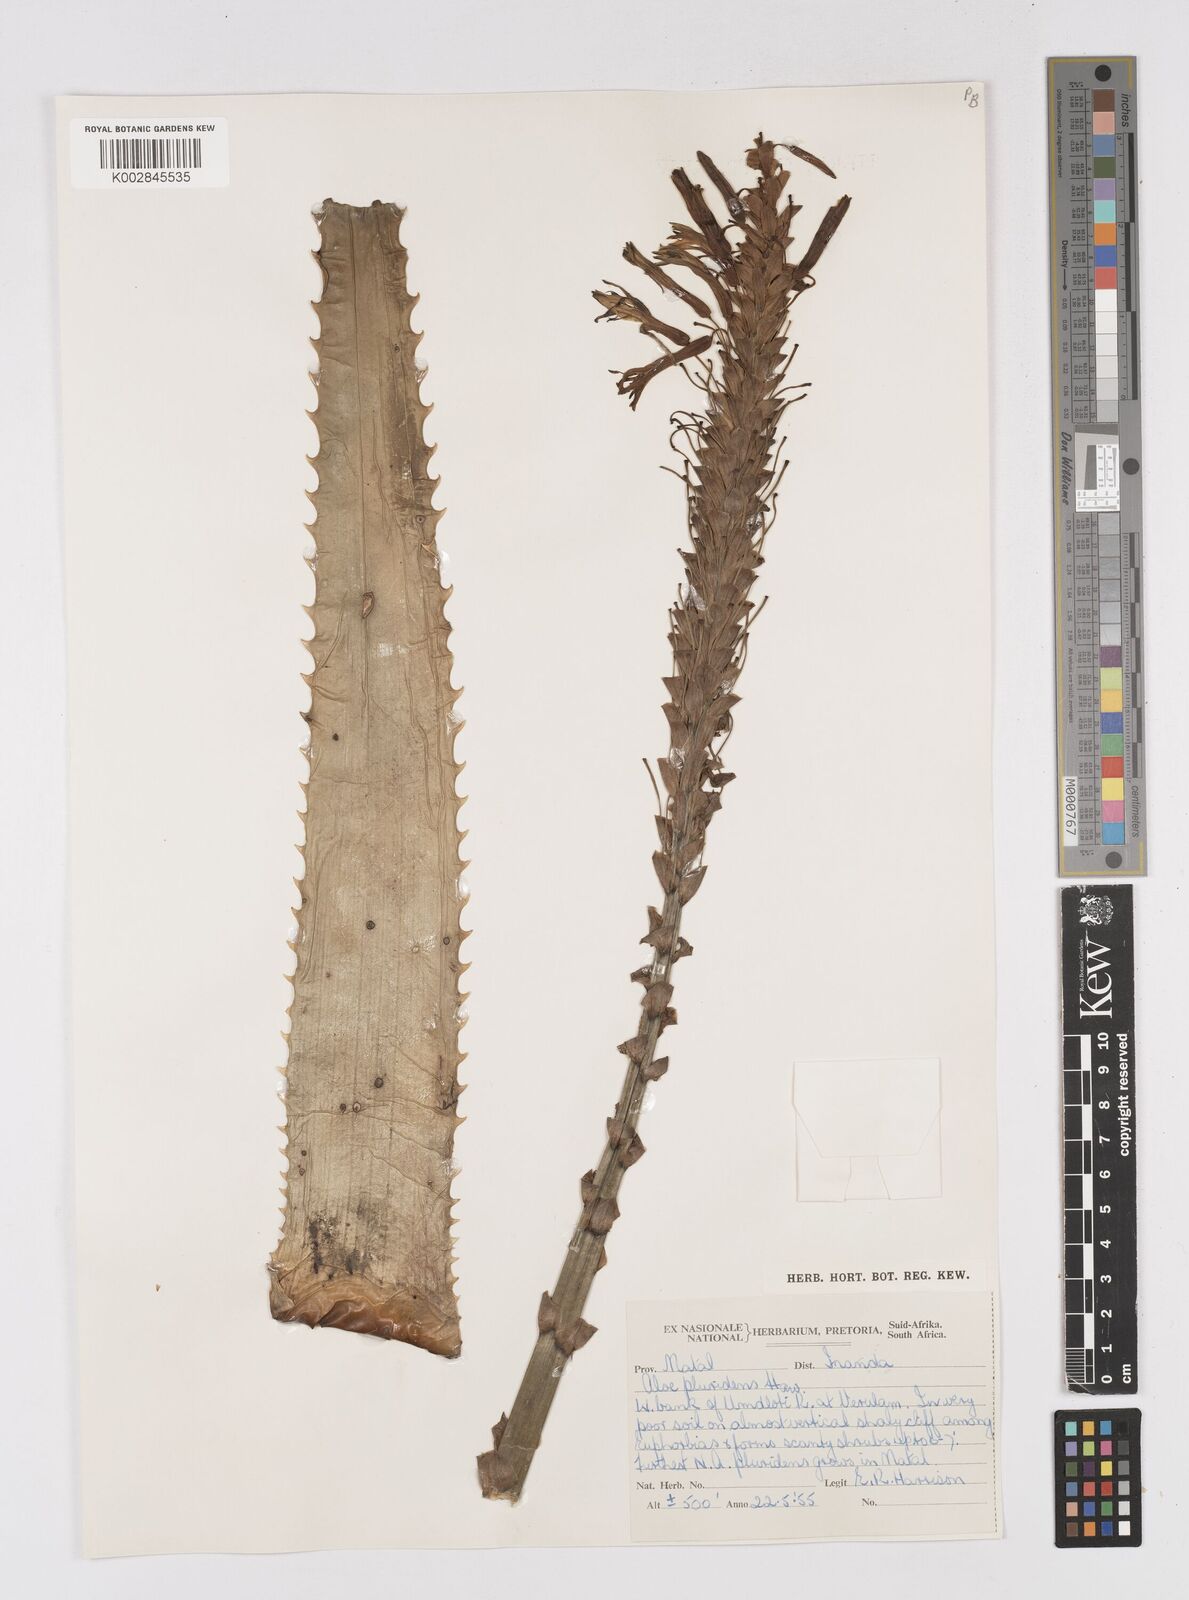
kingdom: Plantae
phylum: Tracheophyta
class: Liliopsida
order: Asparagales
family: Asphodelaceae
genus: Aloe
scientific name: Aloe pluridens
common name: French aloe
